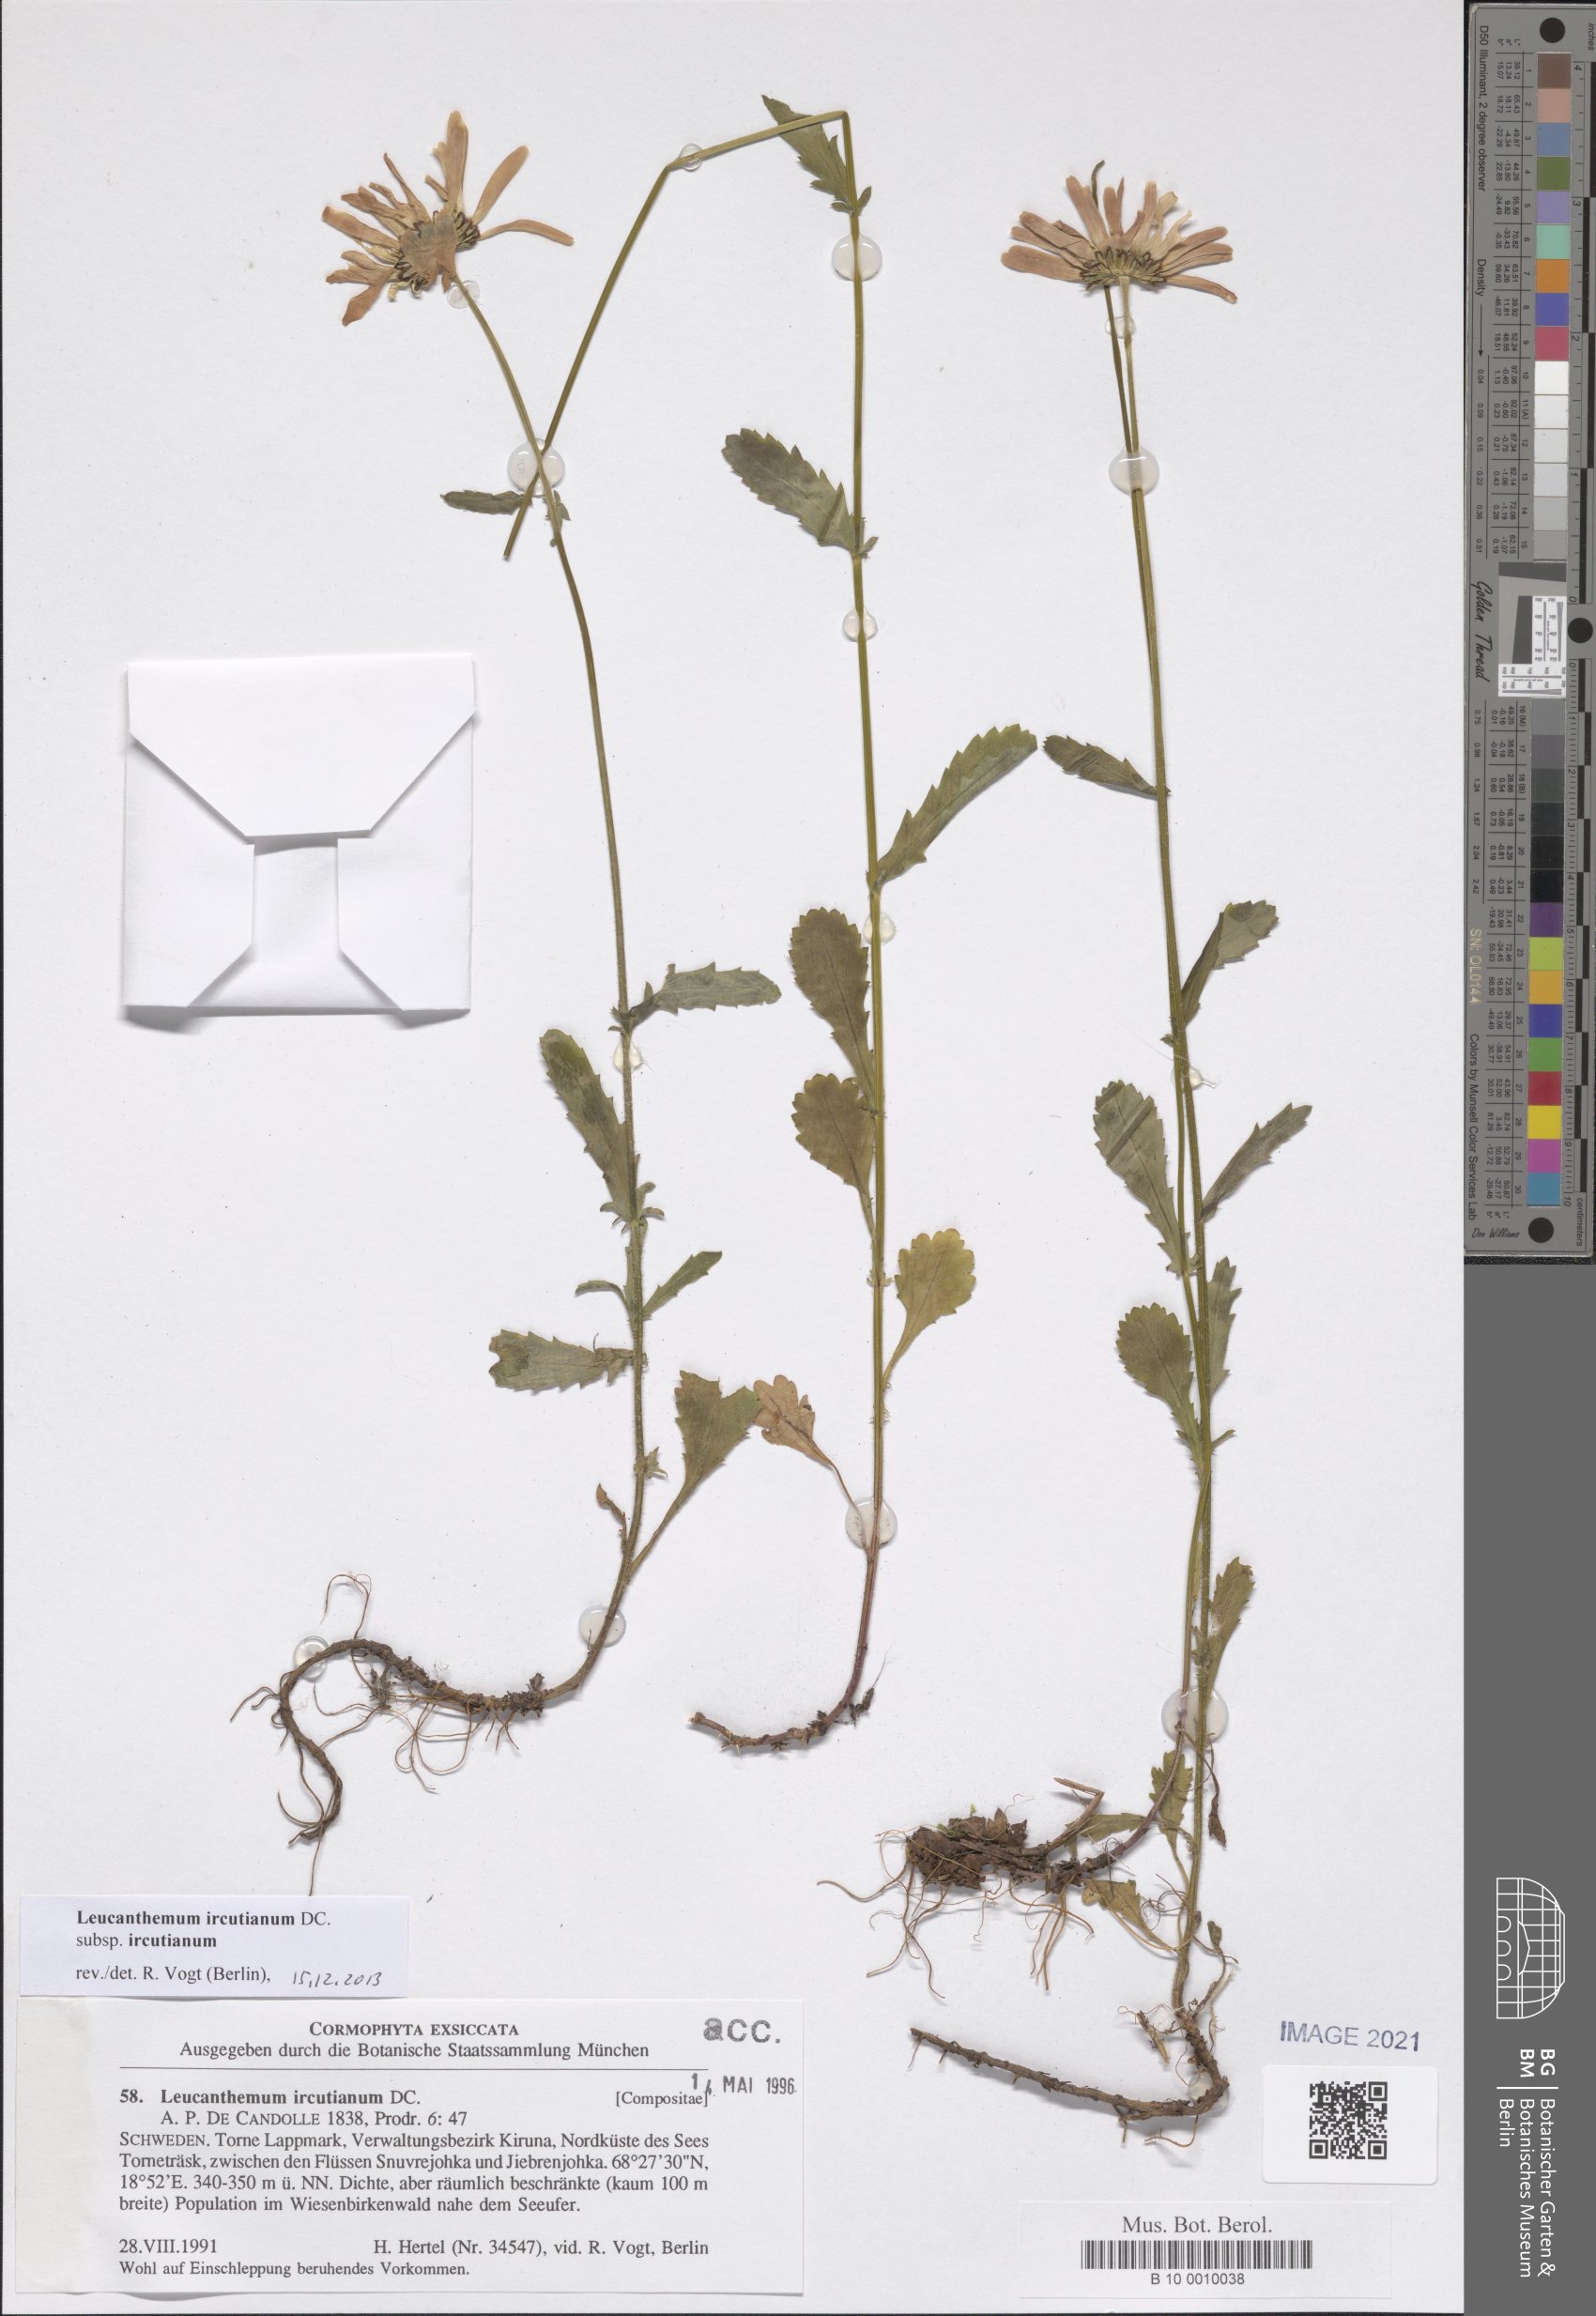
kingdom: Plantae
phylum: Tracheophyta
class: Magnoliopsida
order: Asterales
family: Asteraceae
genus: Leucanthemum
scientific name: Leucanthemum ircutianum
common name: Daisy
